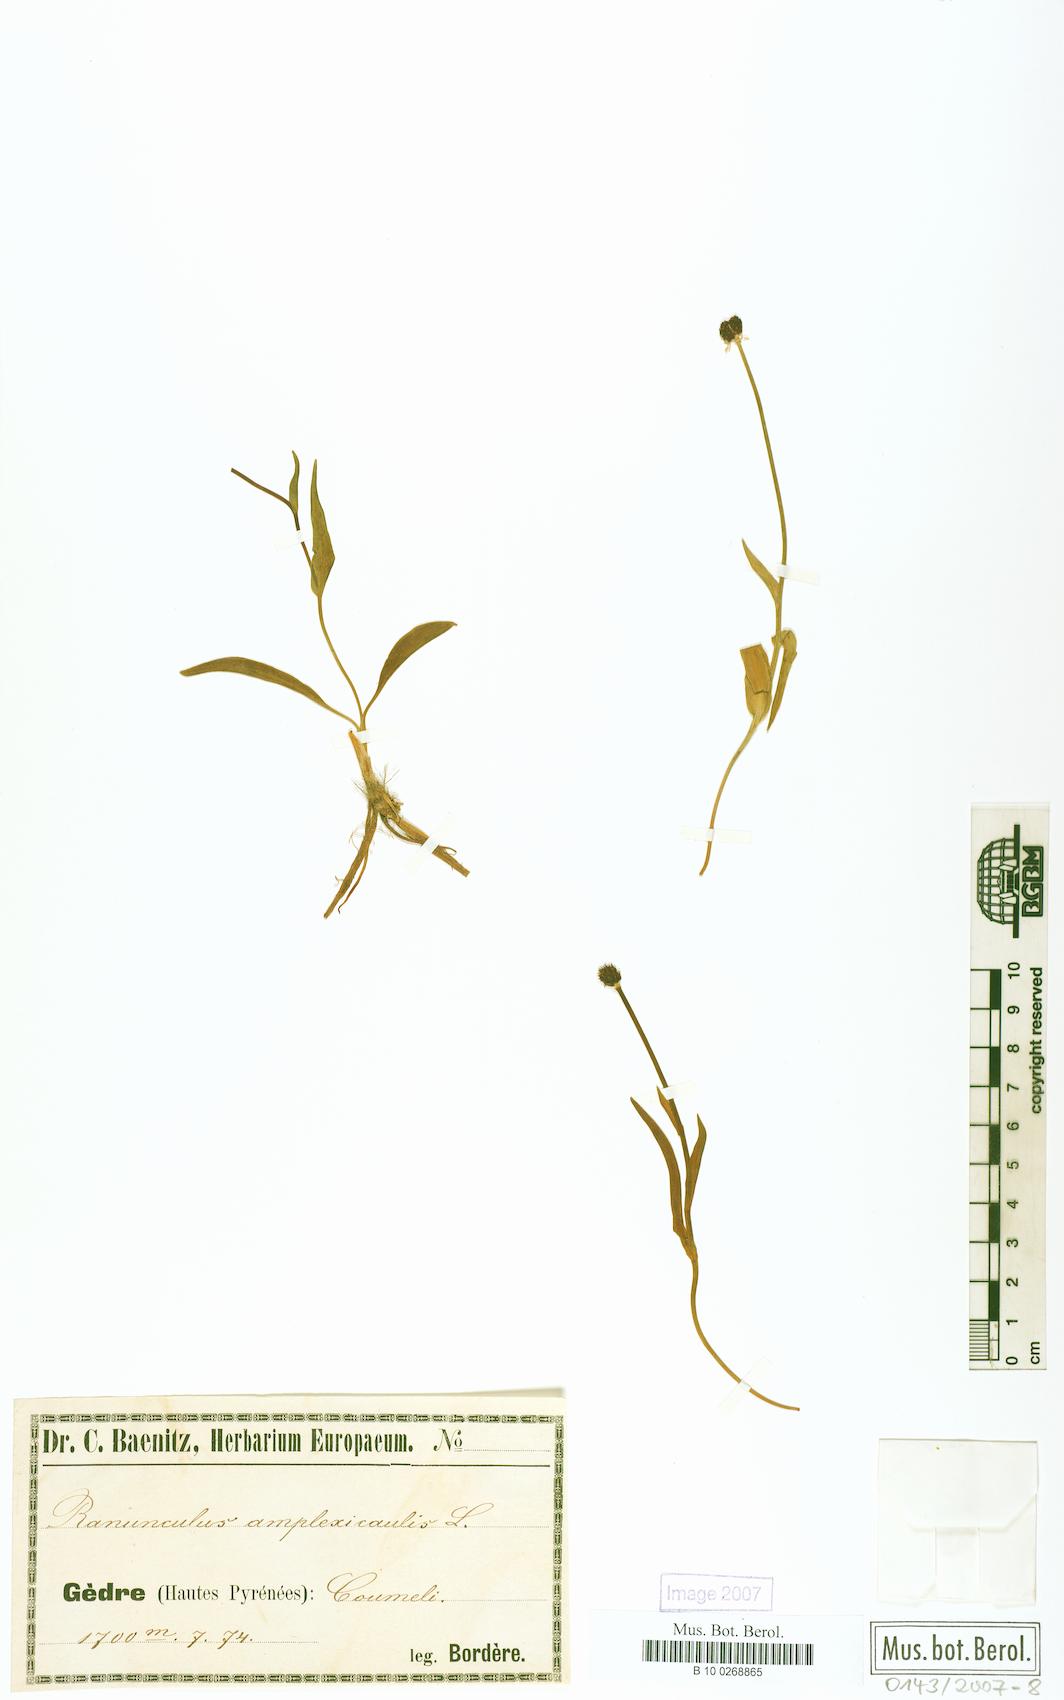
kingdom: Plantae
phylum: Tracheophyta
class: Magnoliopsida
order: Ranunculales
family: Ranunculaceae
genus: Ranunculus
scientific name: Ranunculus amplexicaulis
